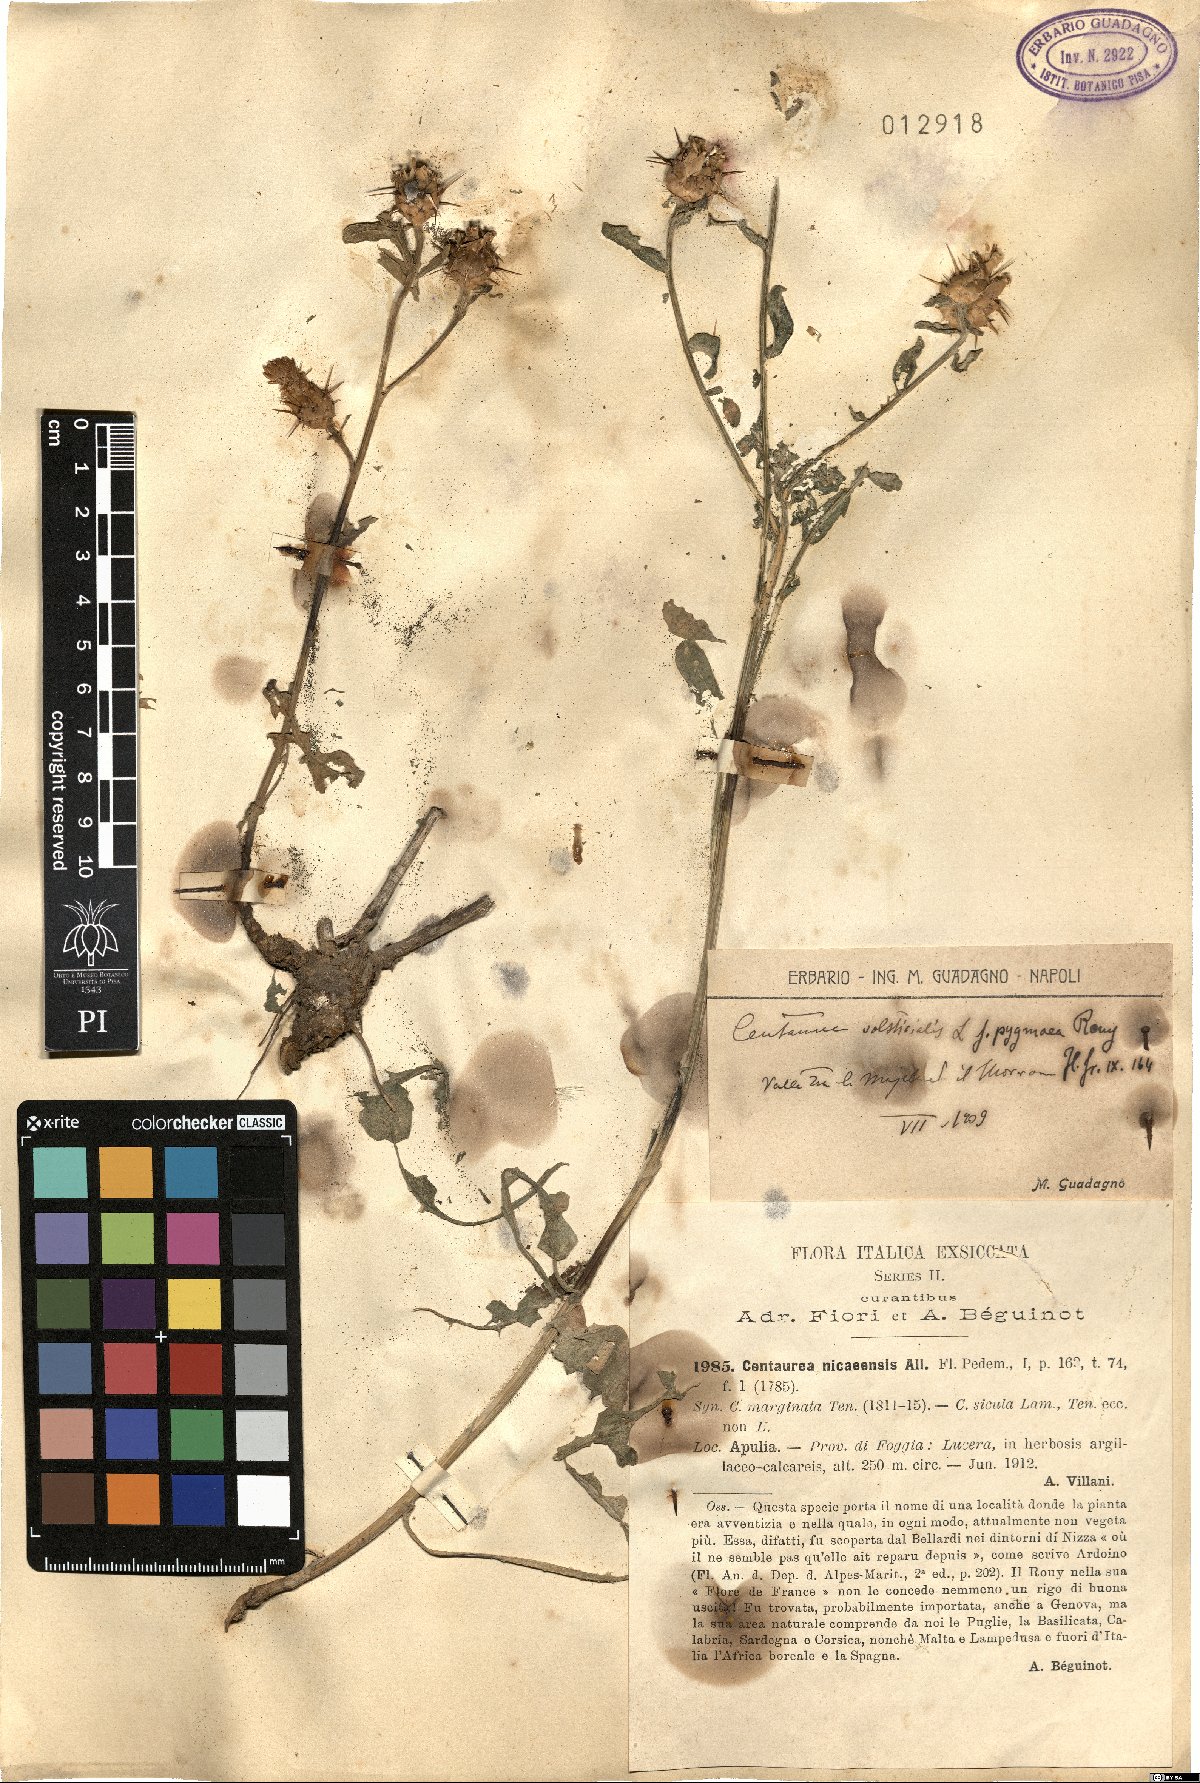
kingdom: Plantae
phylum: Tracheophyta
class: Magnoliopsida
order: Asterales
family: Asteraceae
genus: Centaurea
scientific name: Centaurea sicula
